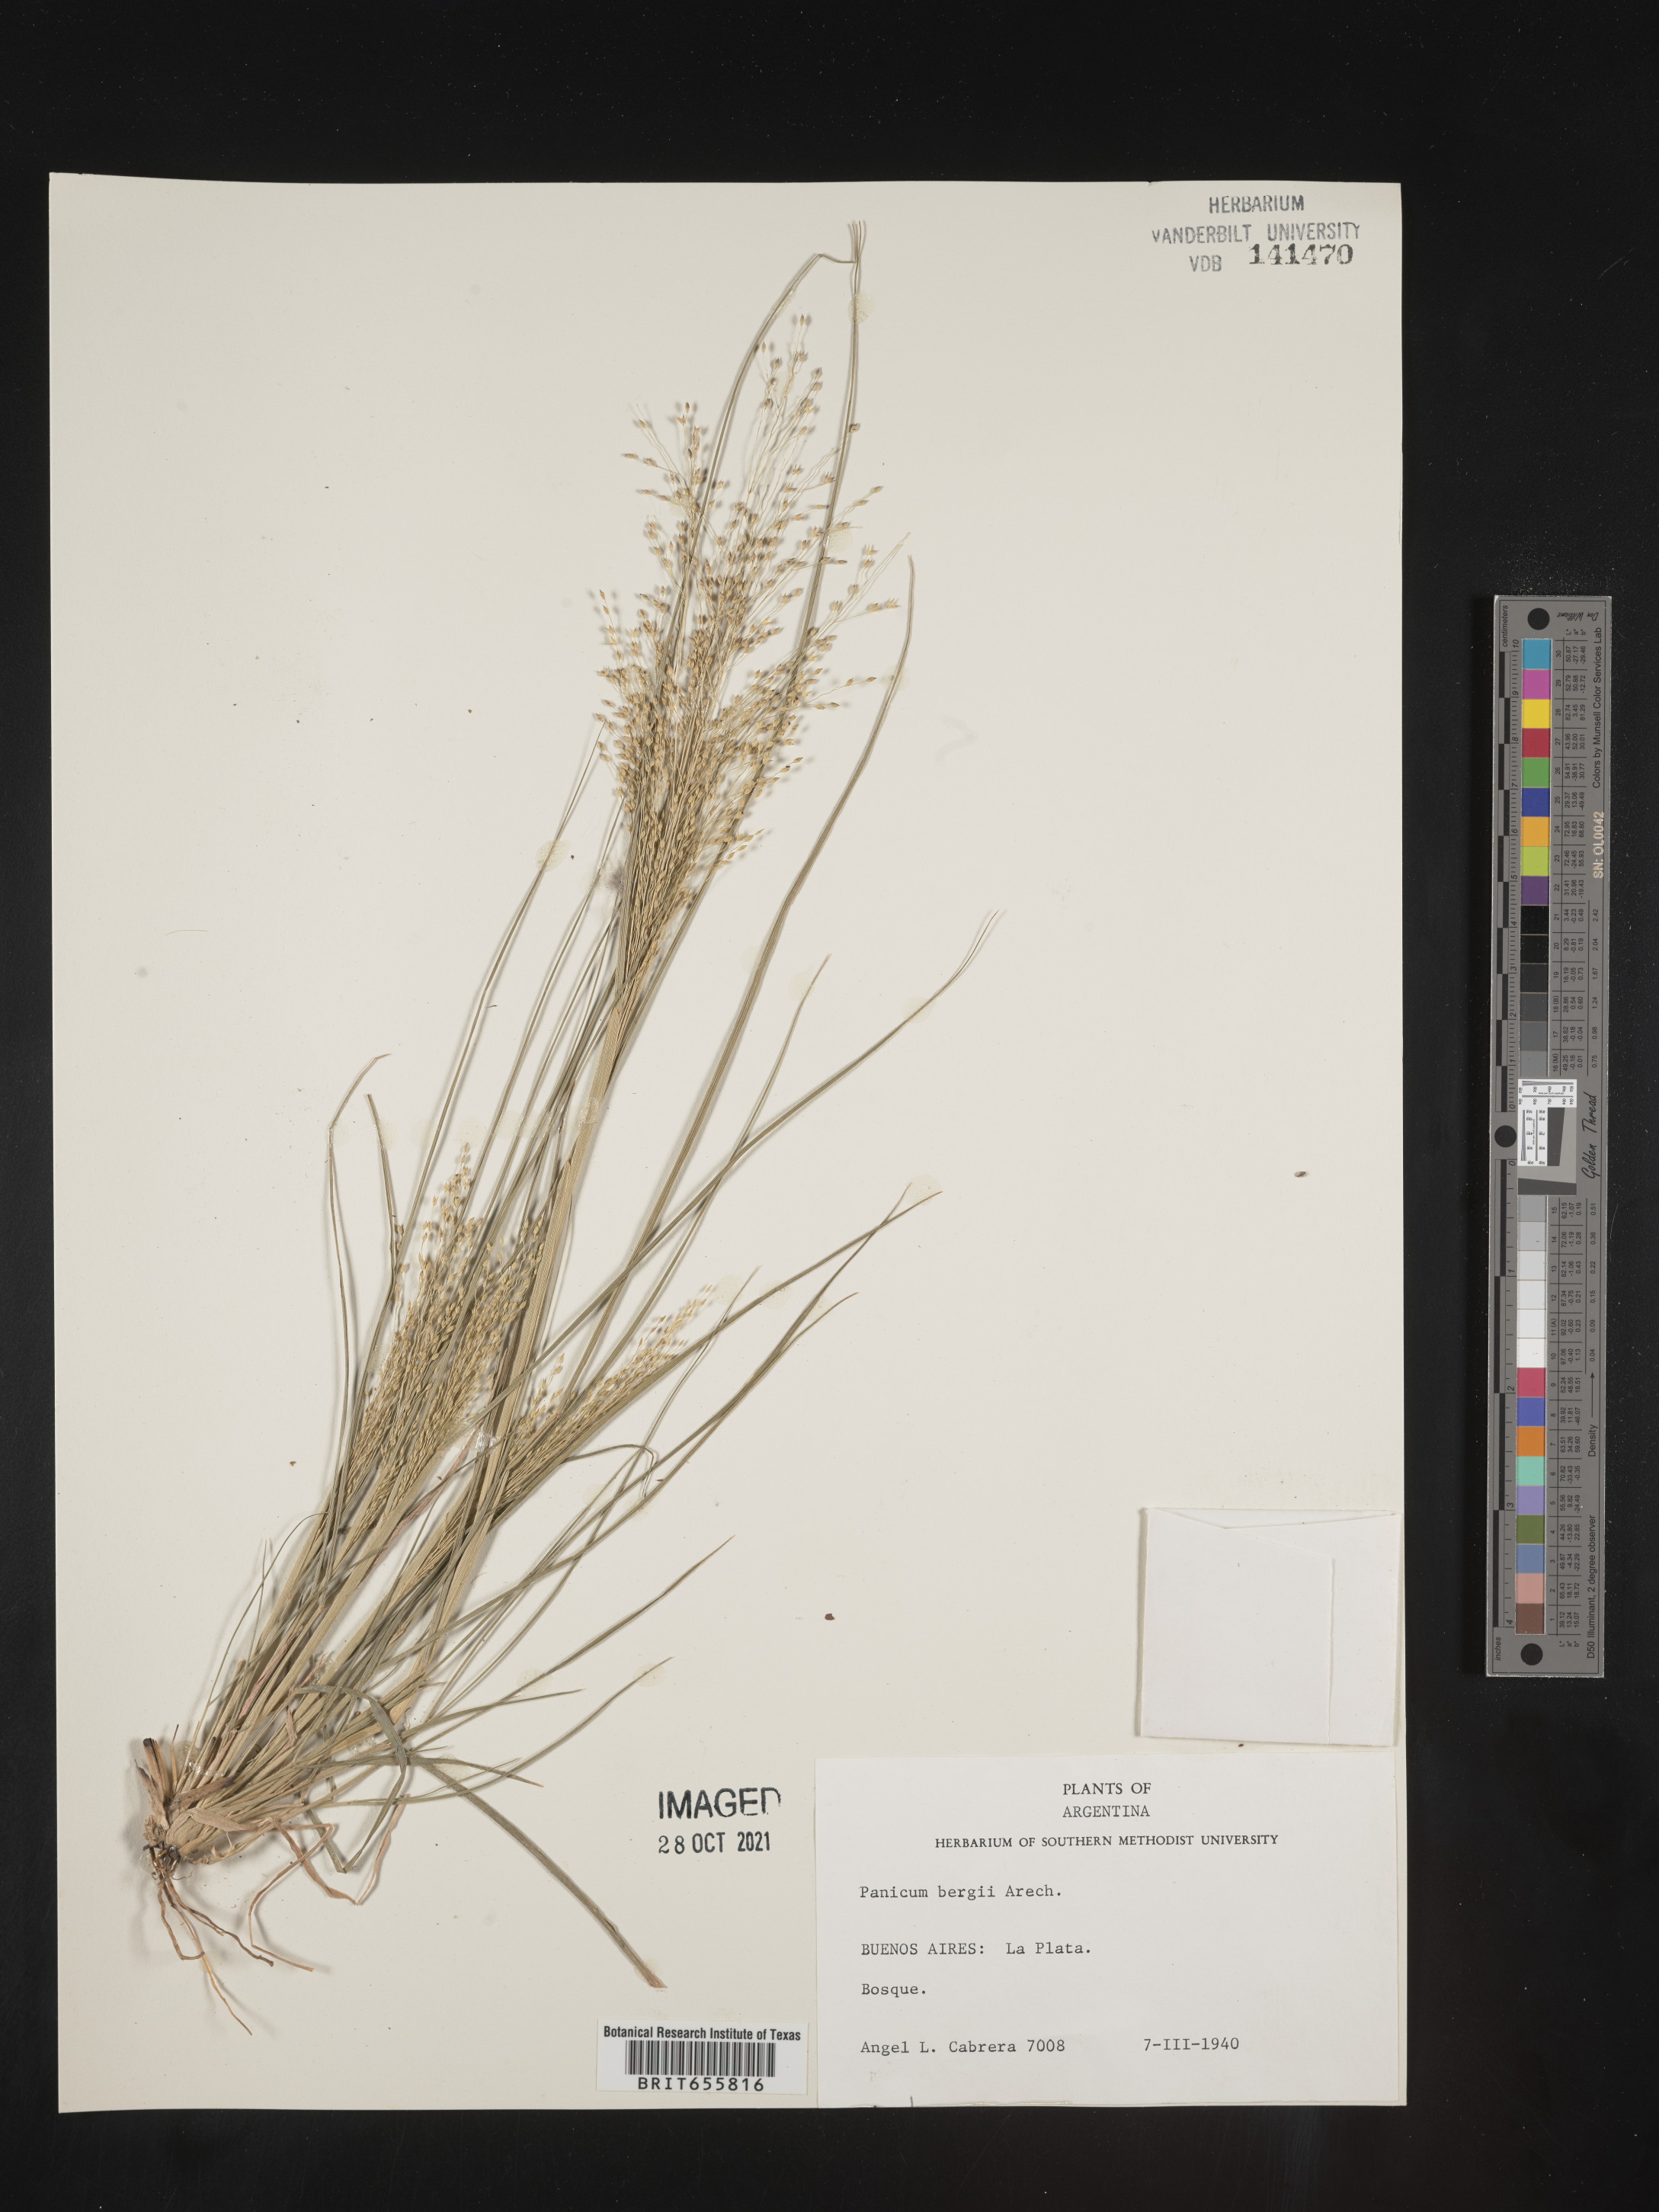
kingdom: Plantae
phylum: Tracheophyta
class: Liliopsida
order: Poales
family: Poaceae
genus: Panicum
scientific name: Panicum
